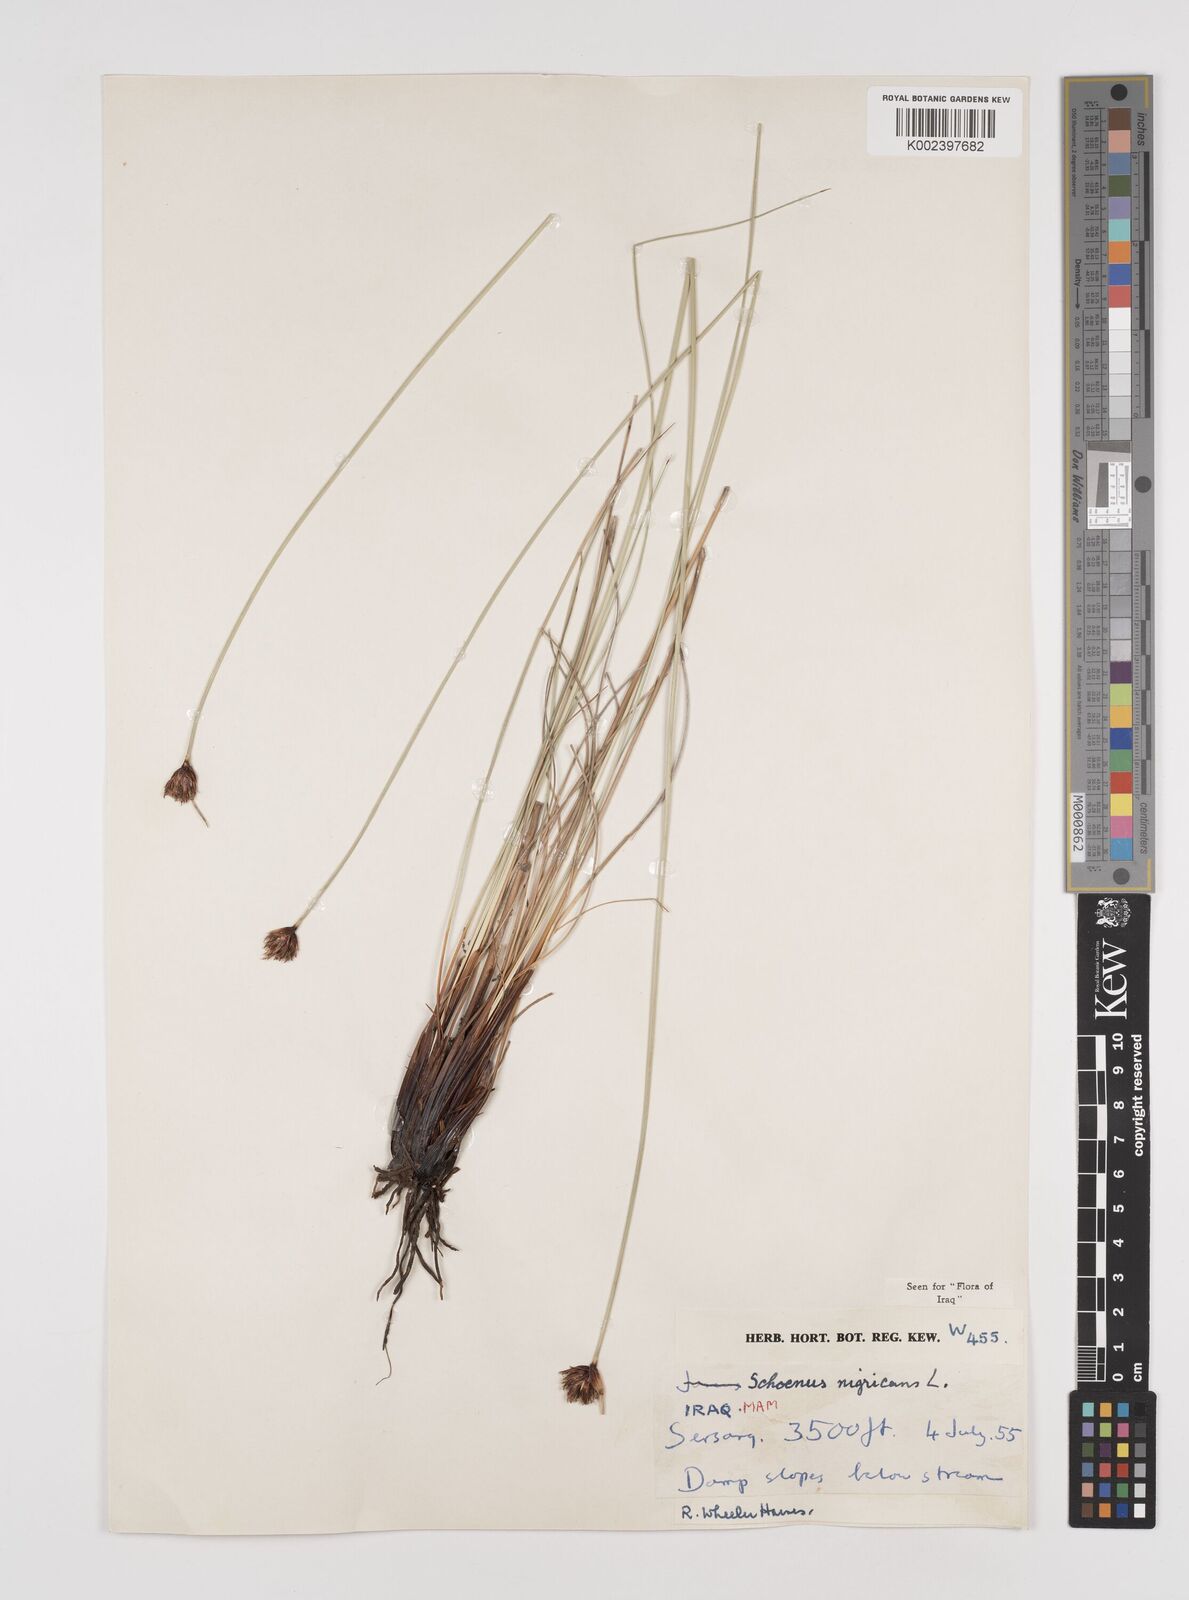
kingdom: Plantae
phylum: Tracheophyta
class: Liliopsida
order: Poales
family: Cyperaceae
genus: Schoenus
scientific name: Schoenus nigricans
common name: Black bog-rush
